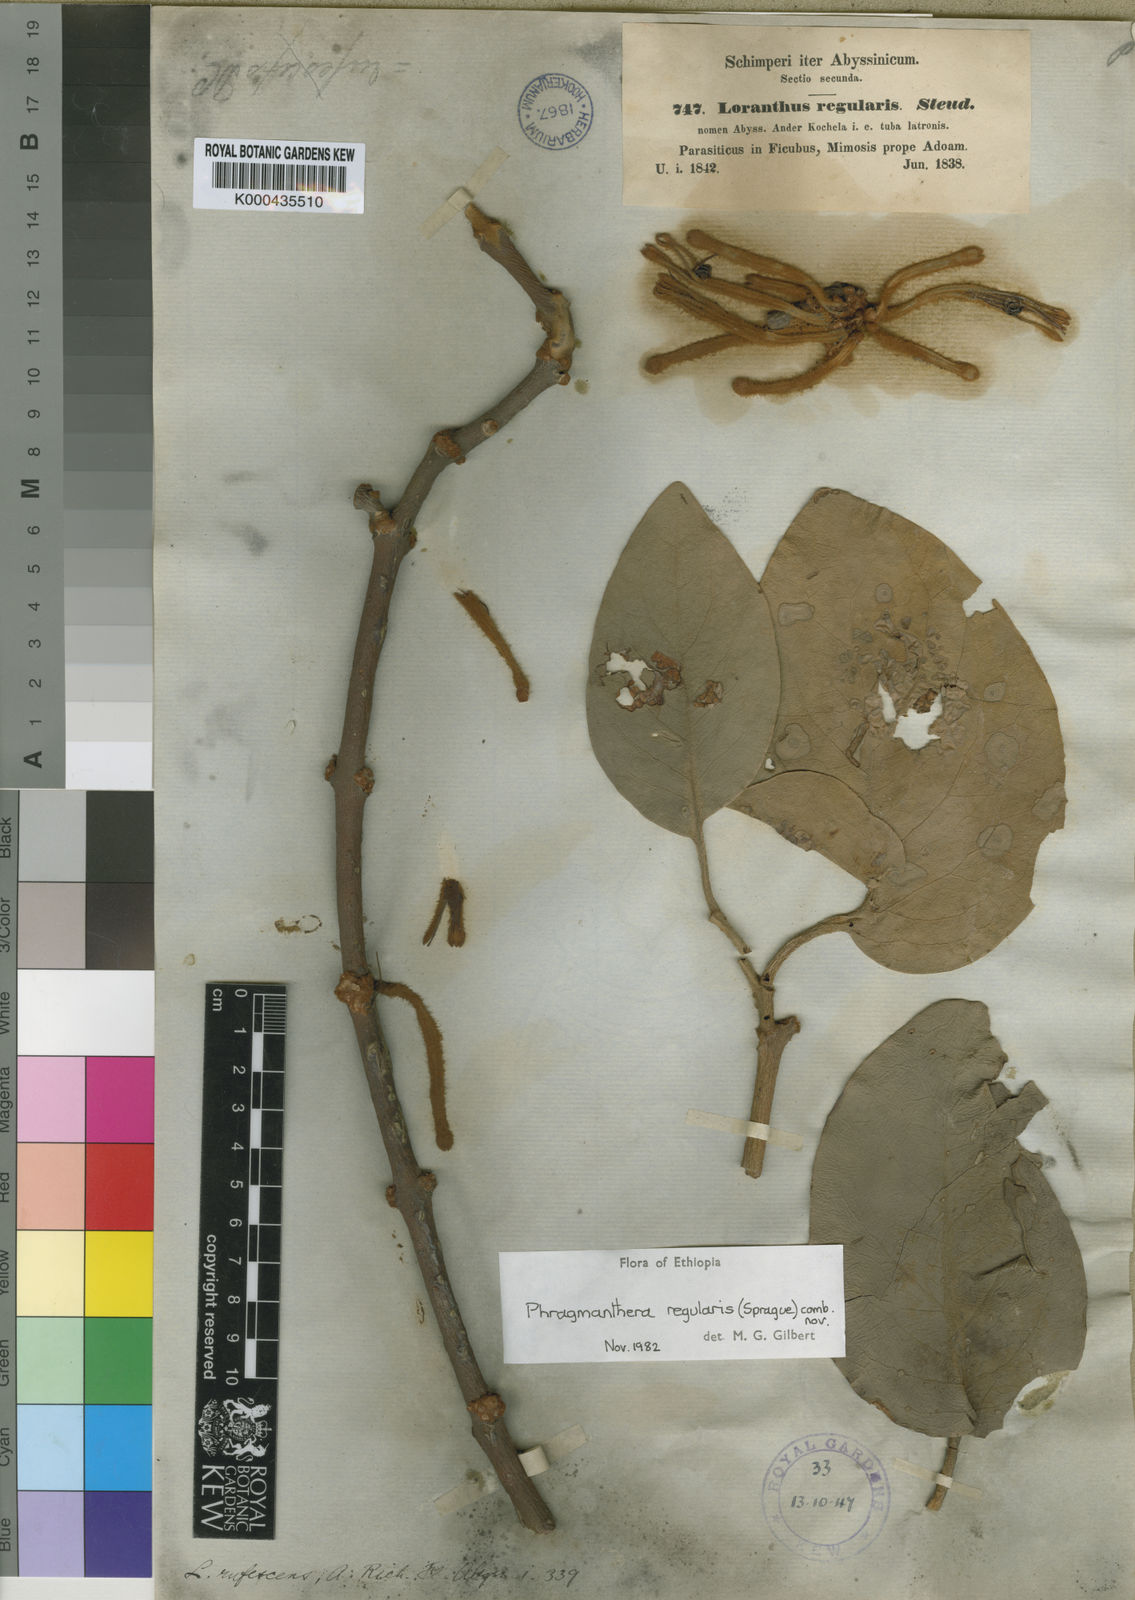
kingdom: Plantae
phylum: Tracheophyta
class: Magnoliopsida
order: Santalales
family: Loranthaceae
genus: Phragmanthera
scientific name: Phragmanthera regularis
